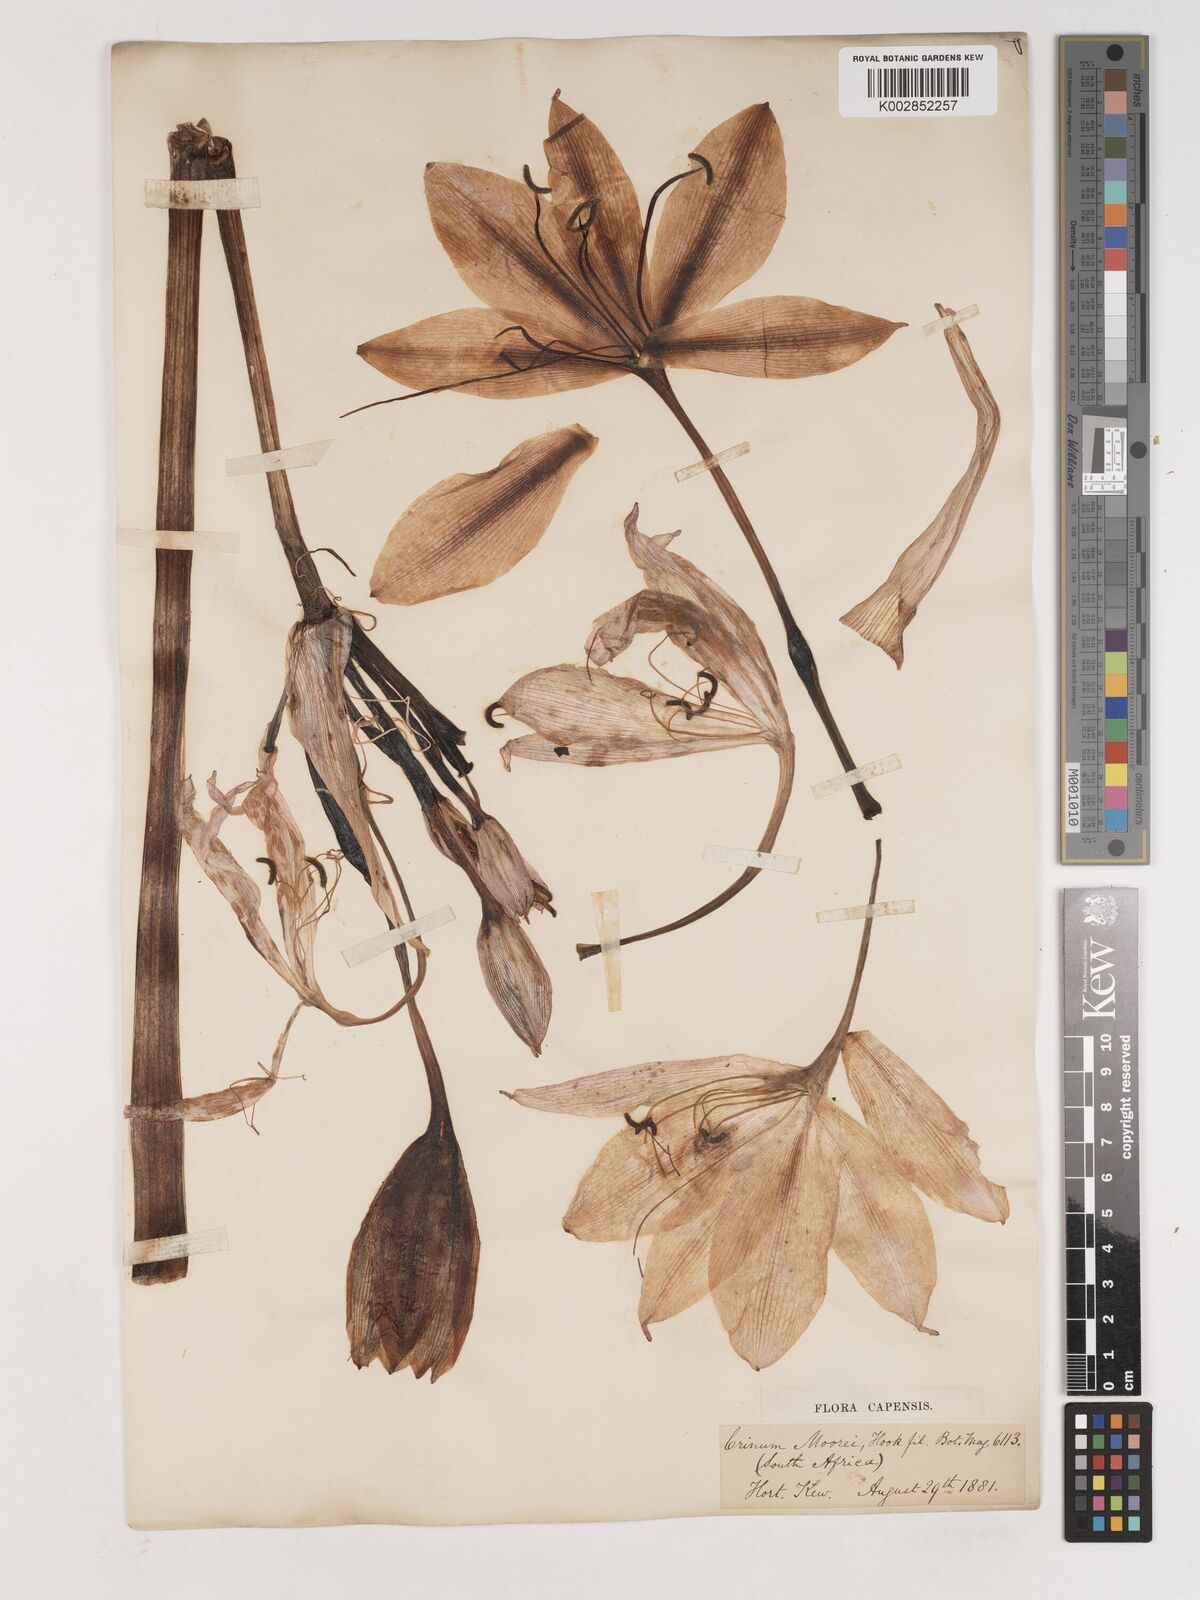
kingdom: Plantae
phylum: Tracheophyta
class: Liliopsida
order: Asparagales
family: Amaryllidaceae
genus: Crinum
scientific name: Crinum moorei
